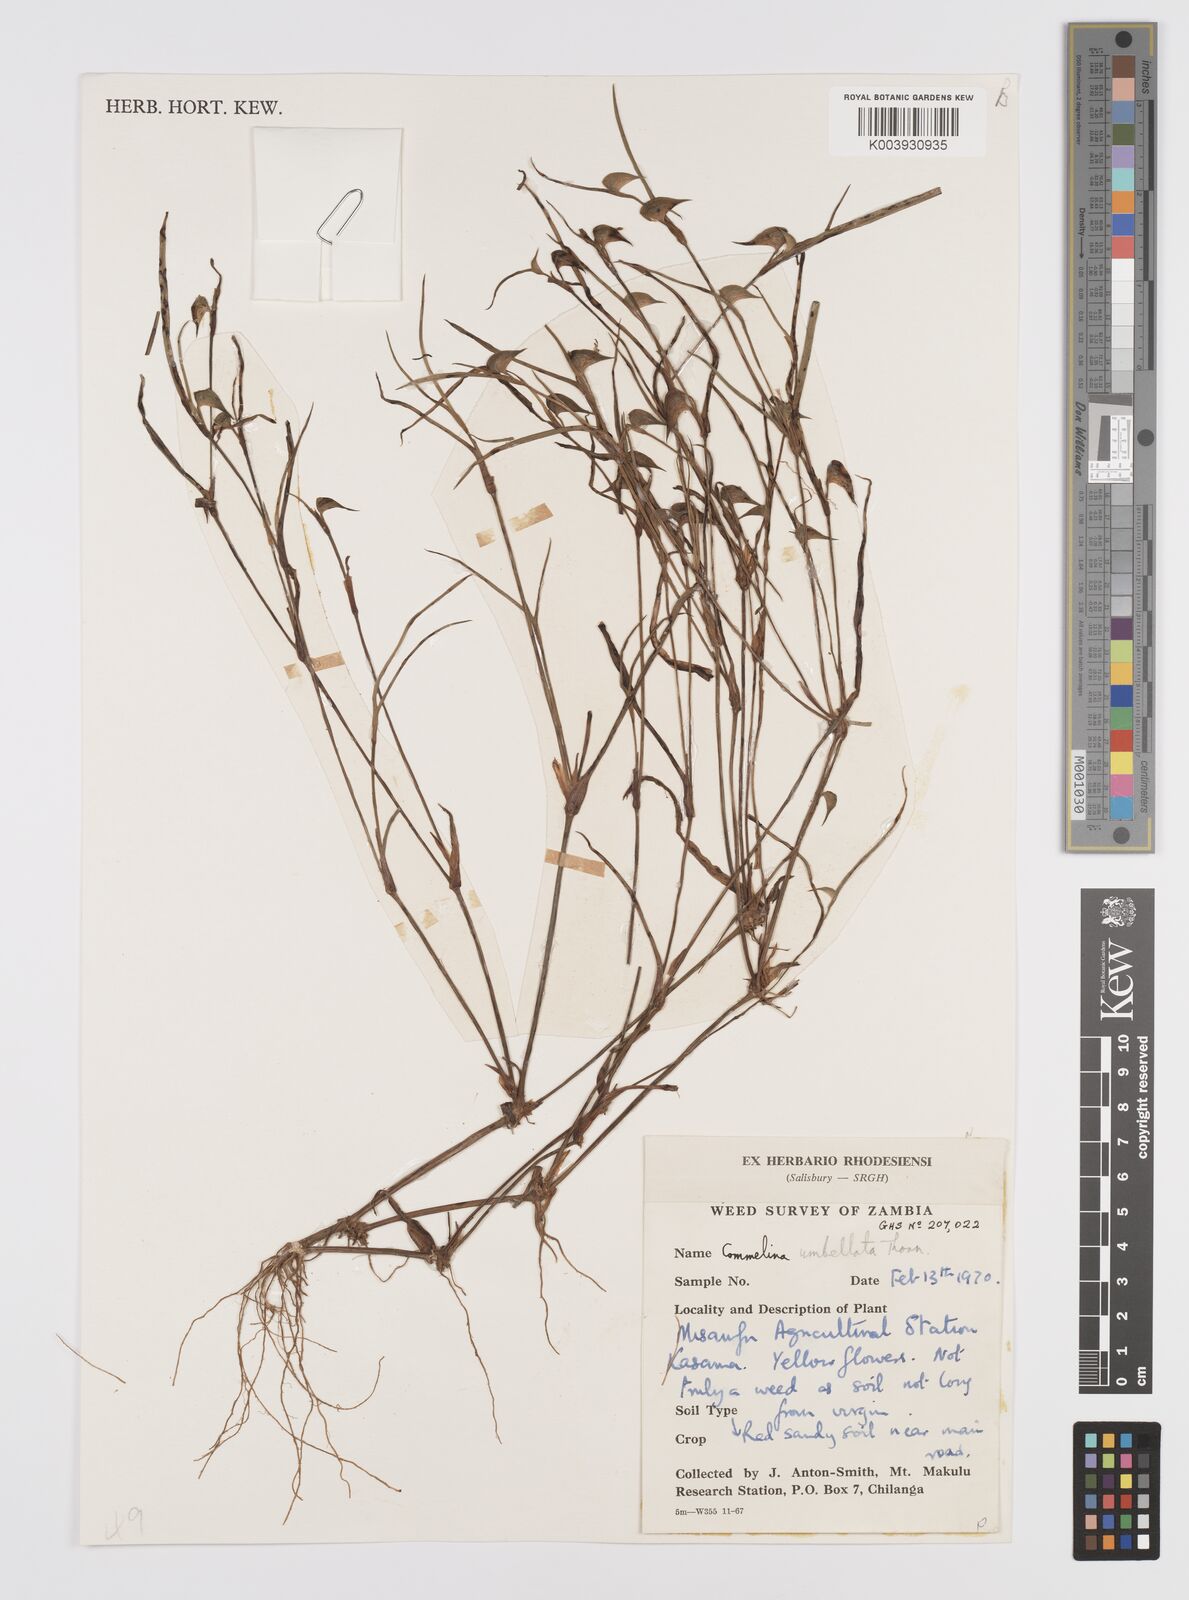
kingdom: Plantae
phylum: Tracheophyta
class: Liliopsida
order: Commelinales
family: Commelinaceae
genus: Commelina
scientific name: Commelina nigritana
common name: African dayflower
